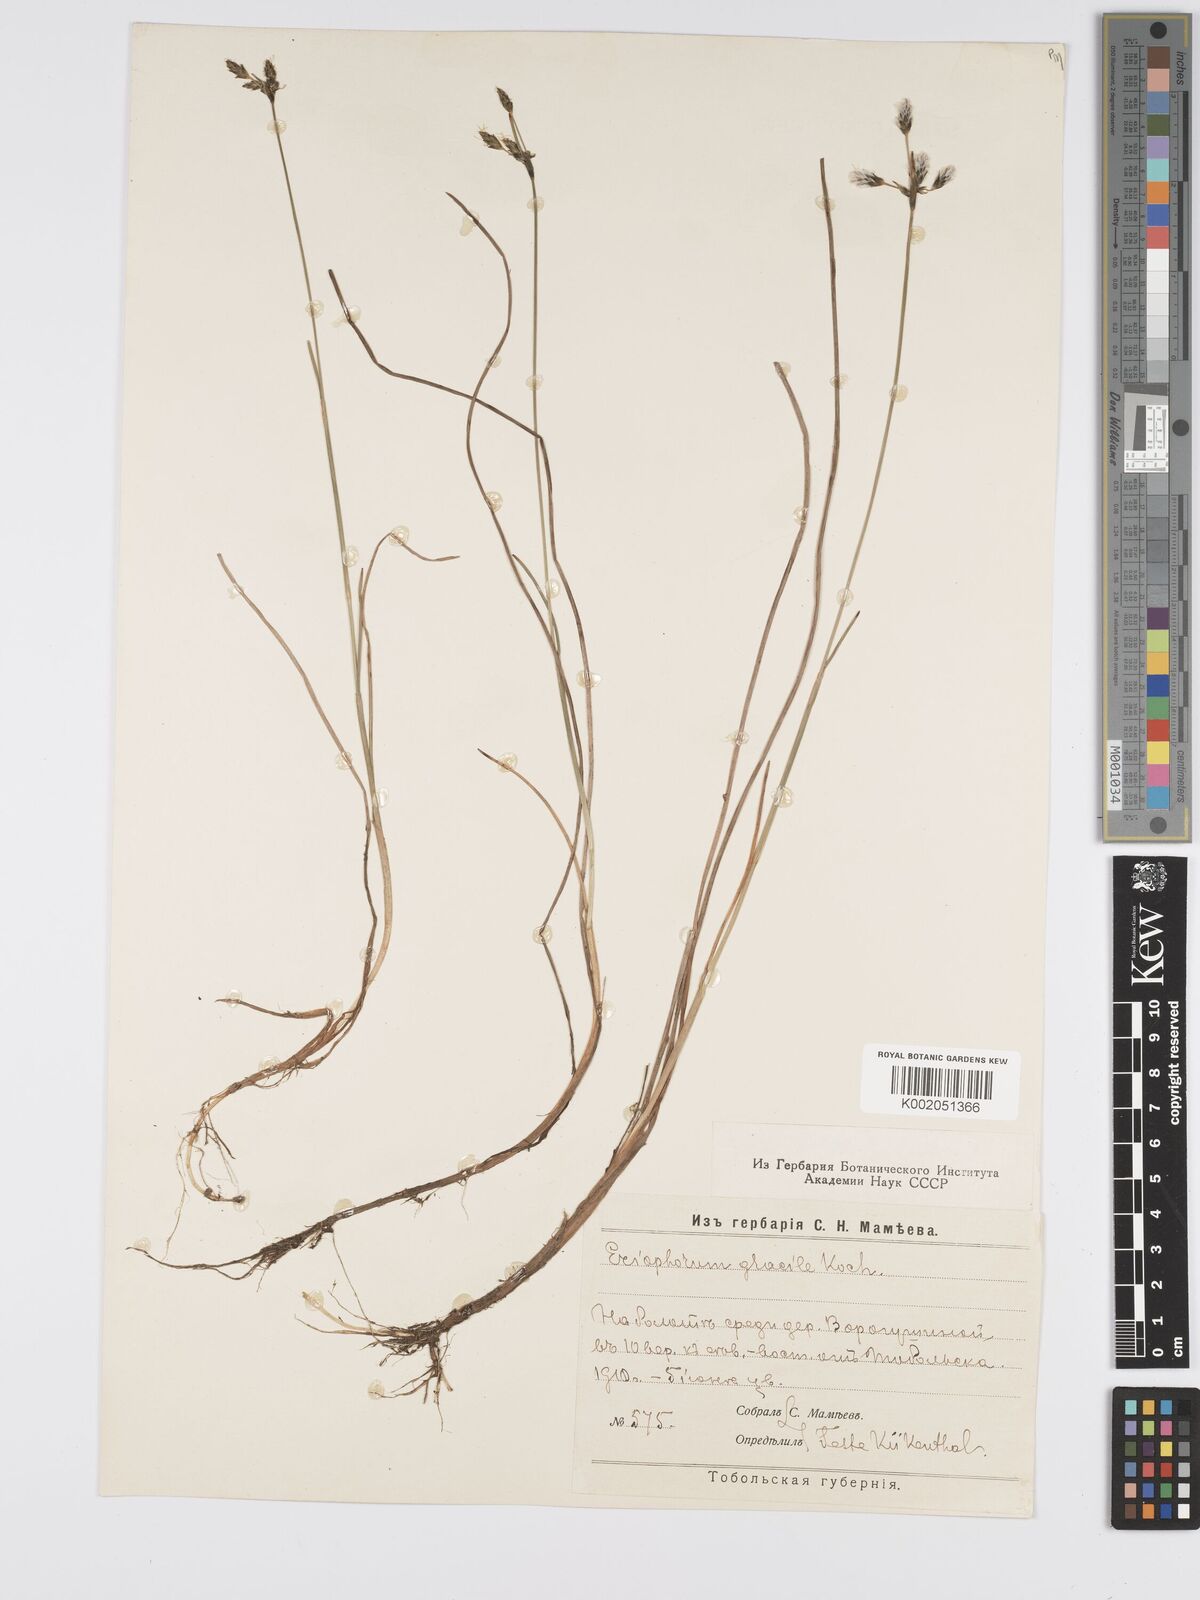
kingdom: Plantae
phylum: Tracheophyta
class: Liliopsida
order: Poales
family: Cyperaceae
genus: Eriophorum
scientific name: Eriophorum gracile
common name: Slender cottongrass
